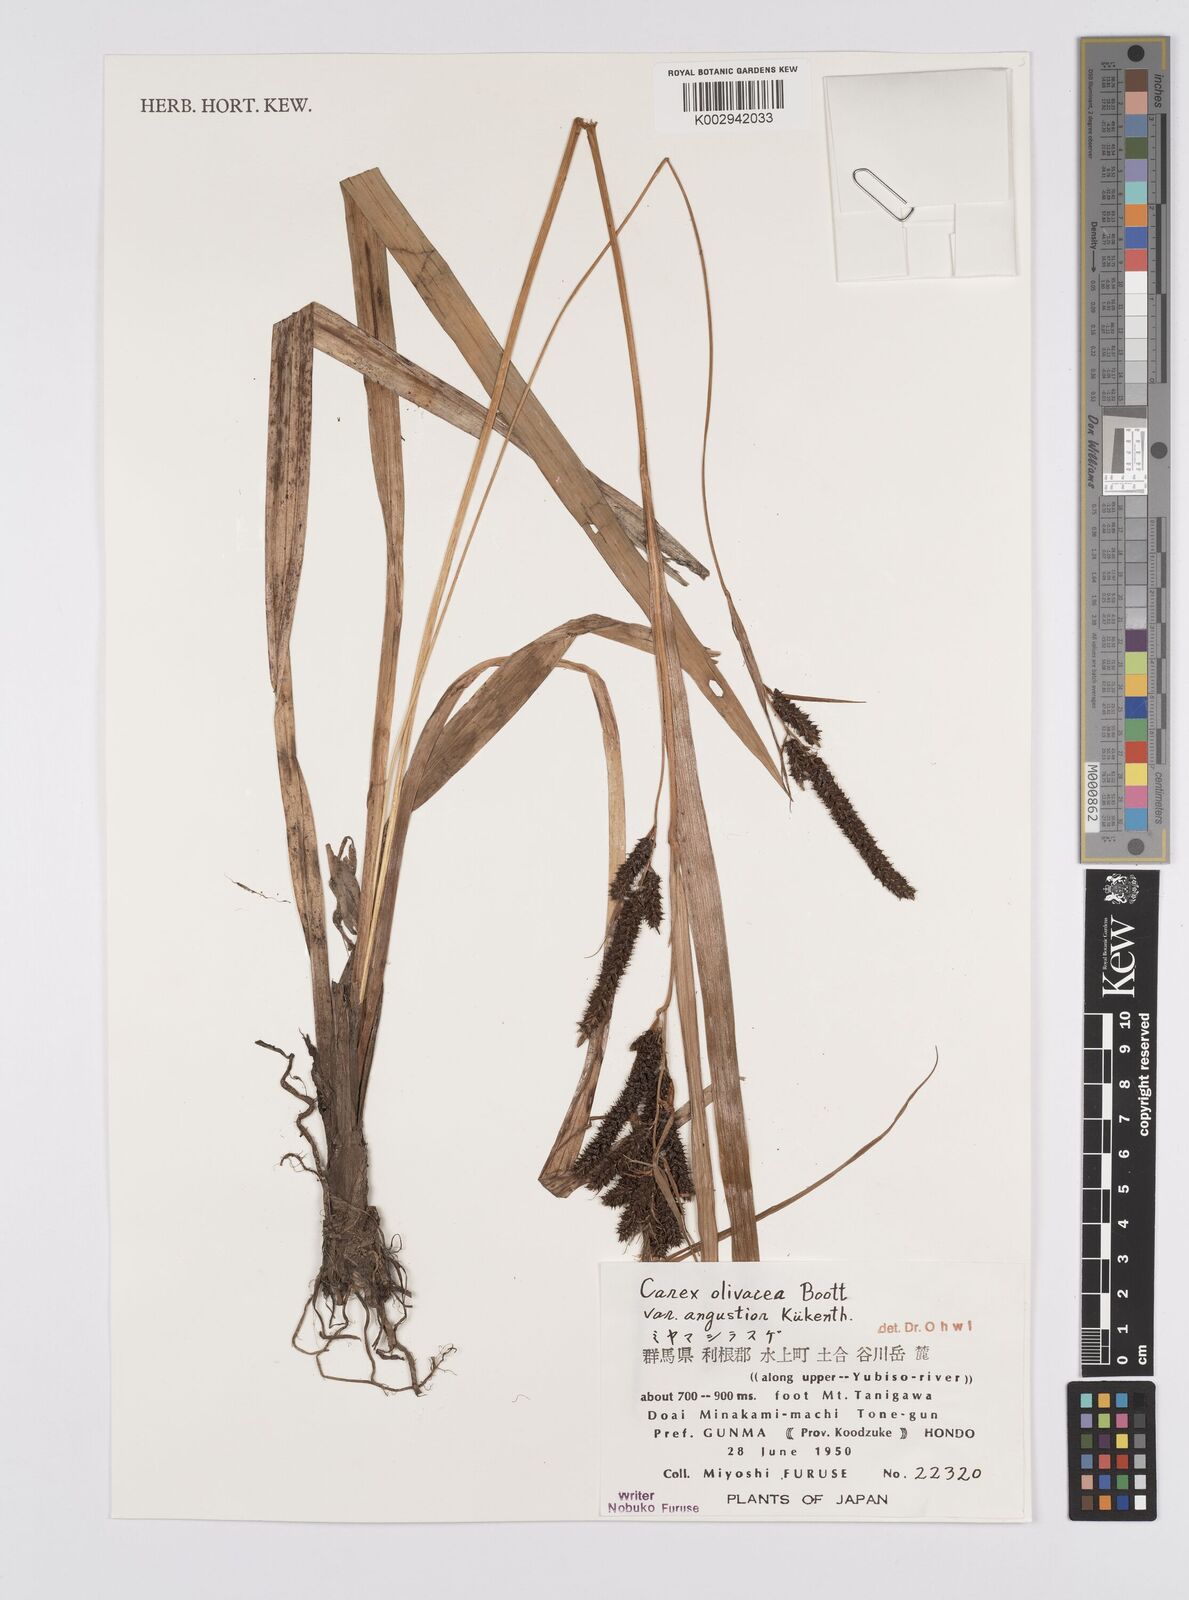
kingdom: Plantae
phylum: Tracheophyta
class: Liliopsida
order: Poales
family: Cyperaceae
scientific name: Cyperaceae
